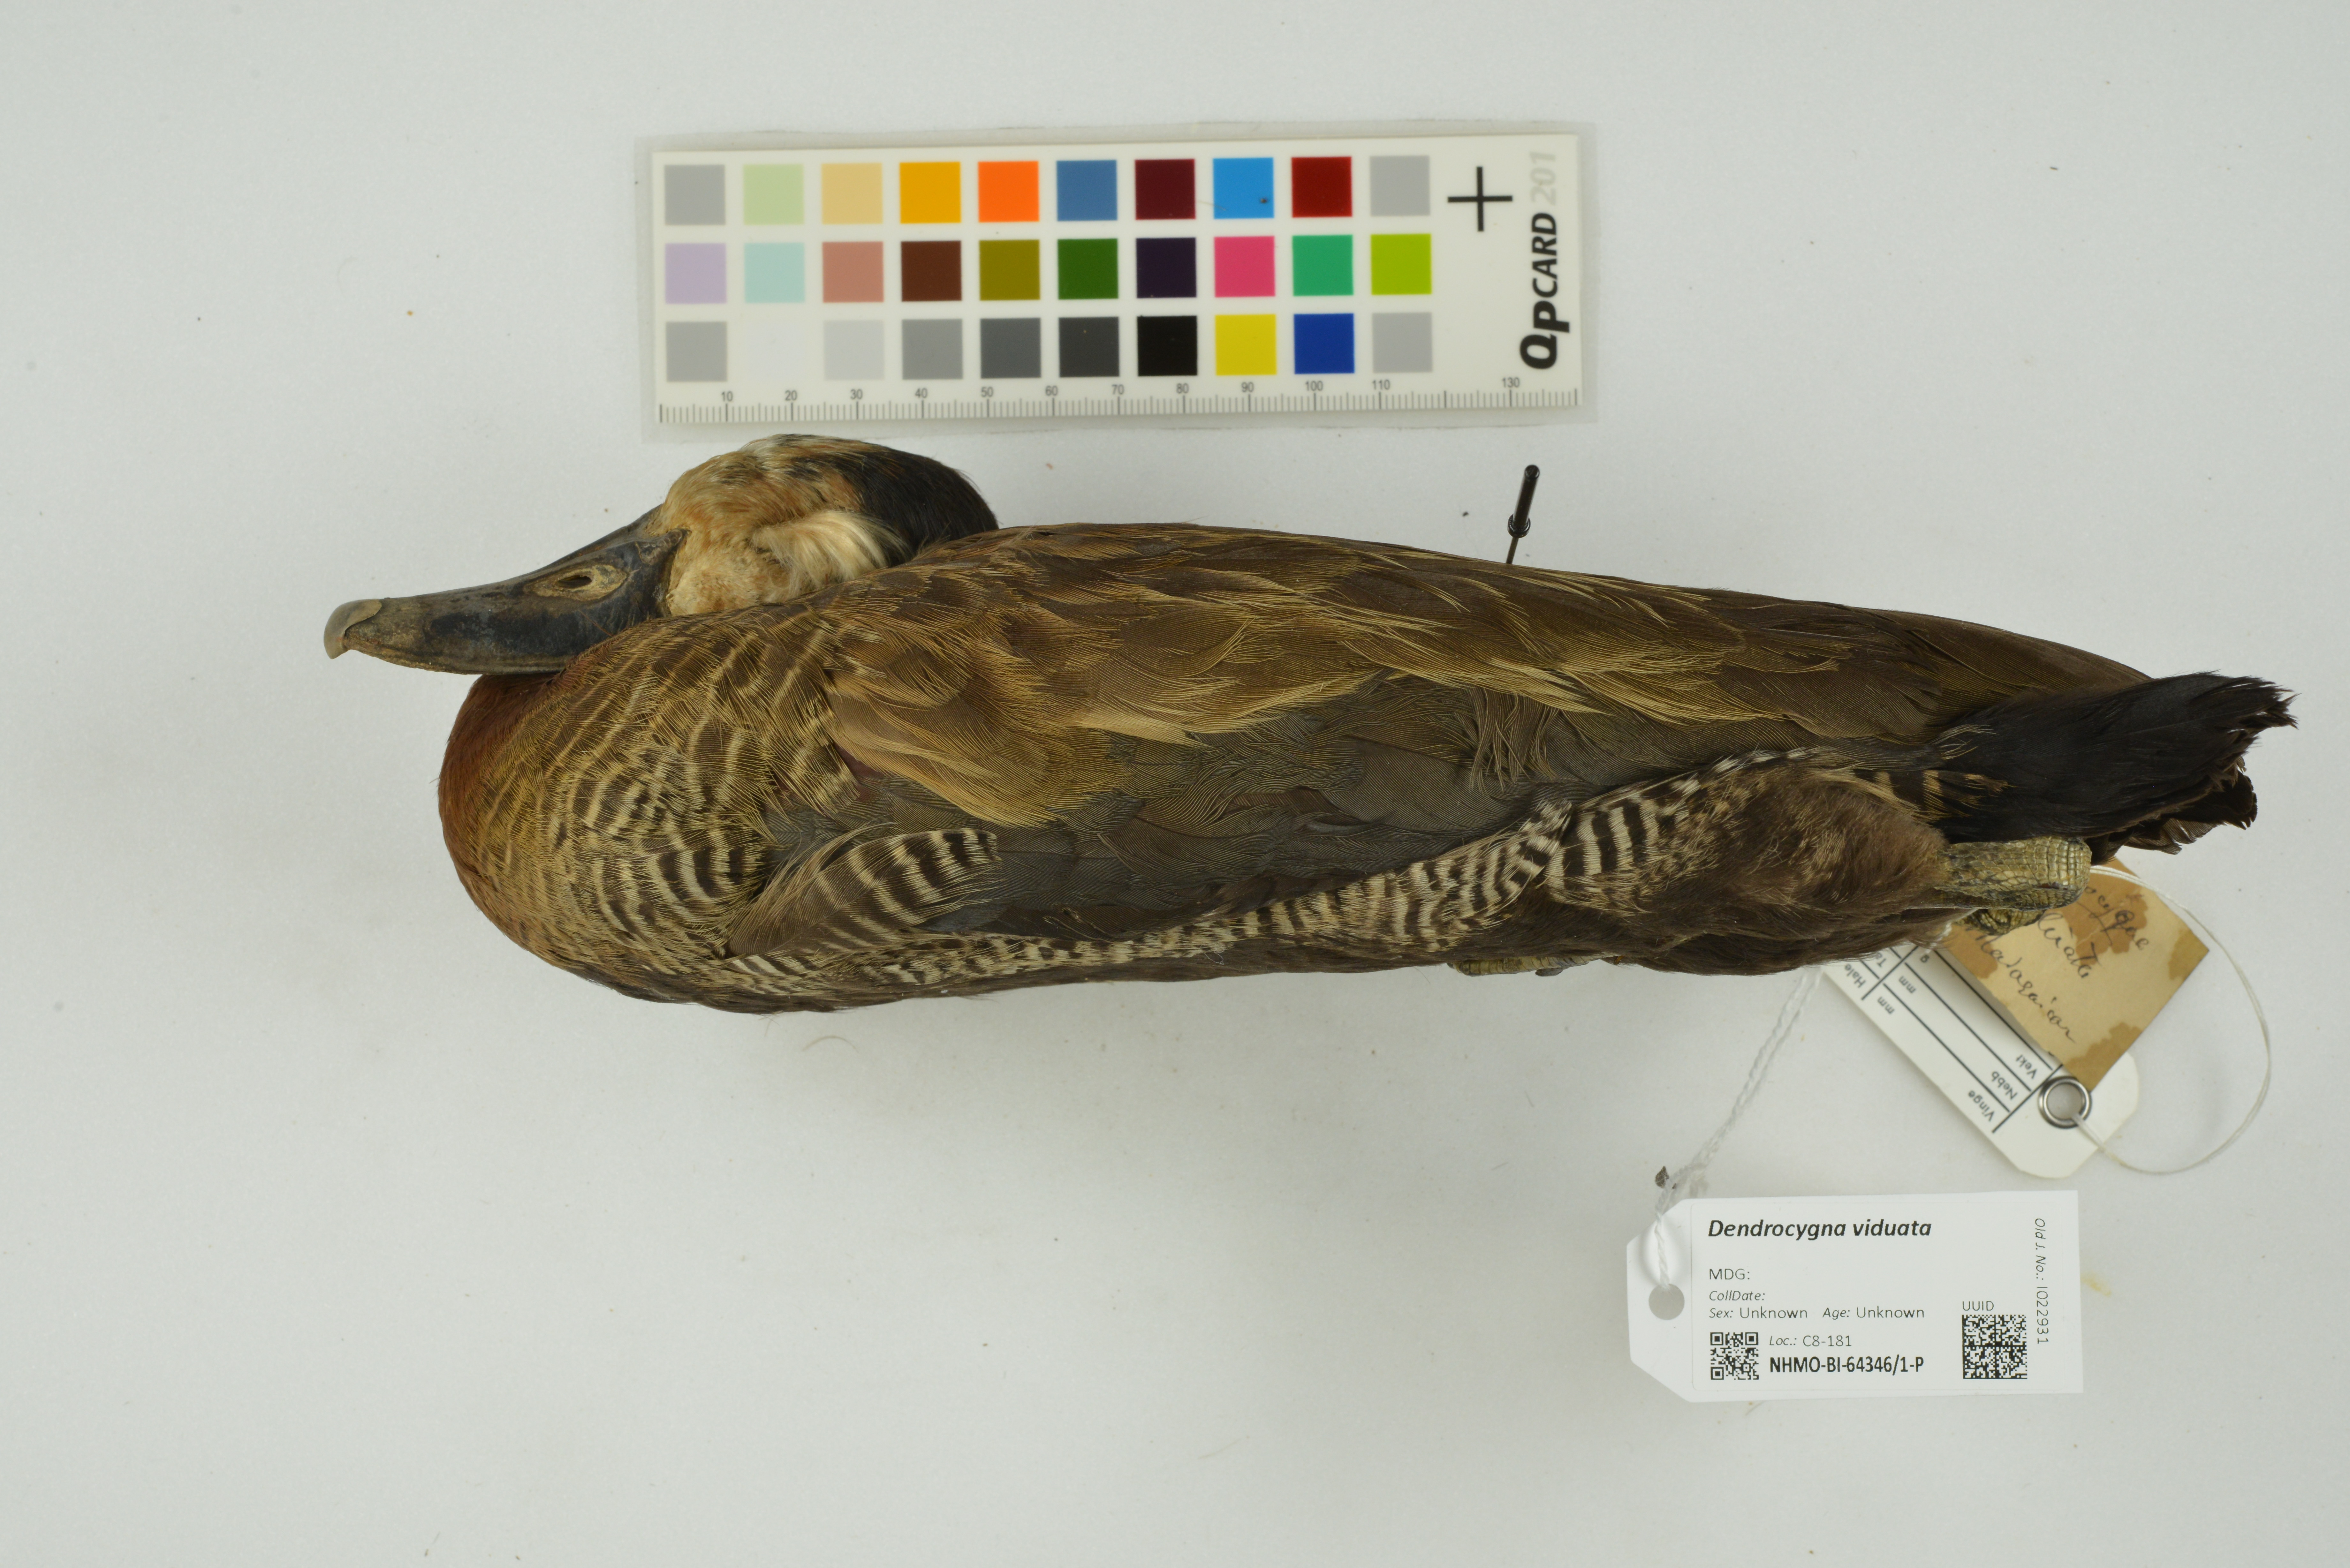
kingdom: Animalia
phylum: Chordata
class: Aves
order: Anseriformes
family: Anatidae
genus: Dendrocygna
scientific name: Dendrocygna viduata
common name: White-faced whistling duck
